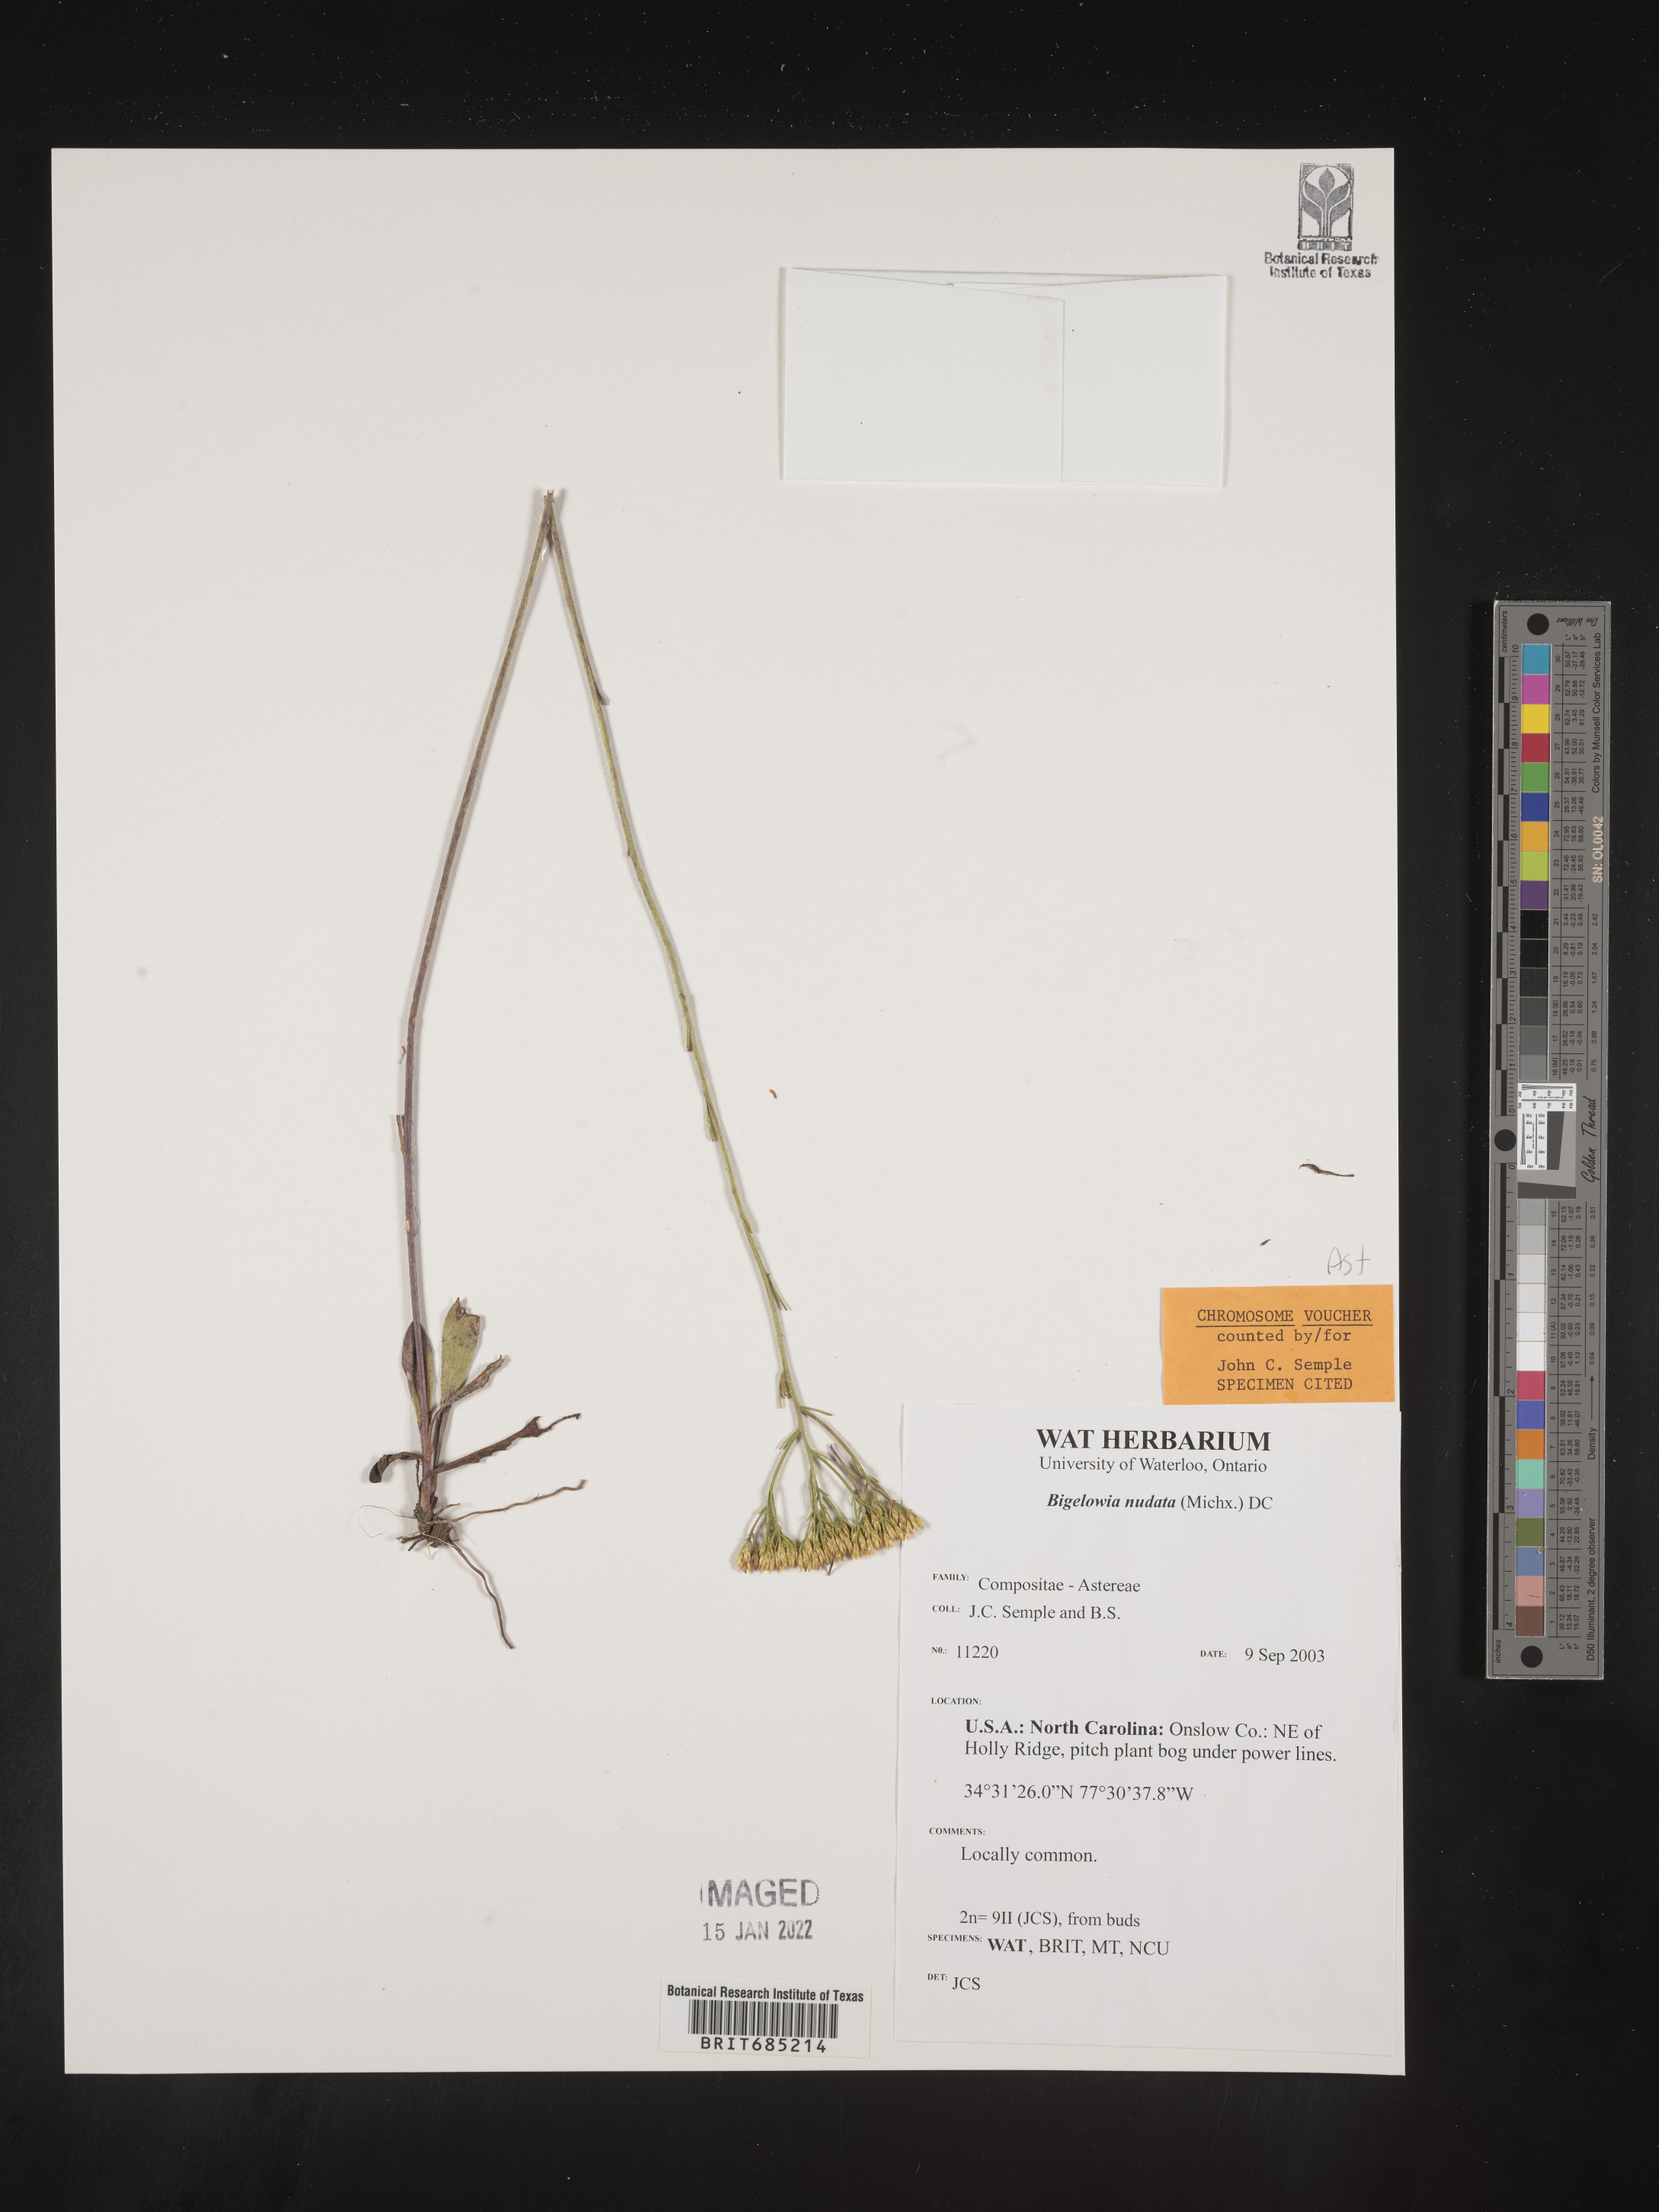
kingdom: Plantae
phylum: Tracheophyta
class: Magnoliopsida
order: Asterales
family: Asteraceae
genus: Bigelowia
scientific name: Bigelowia nudata
